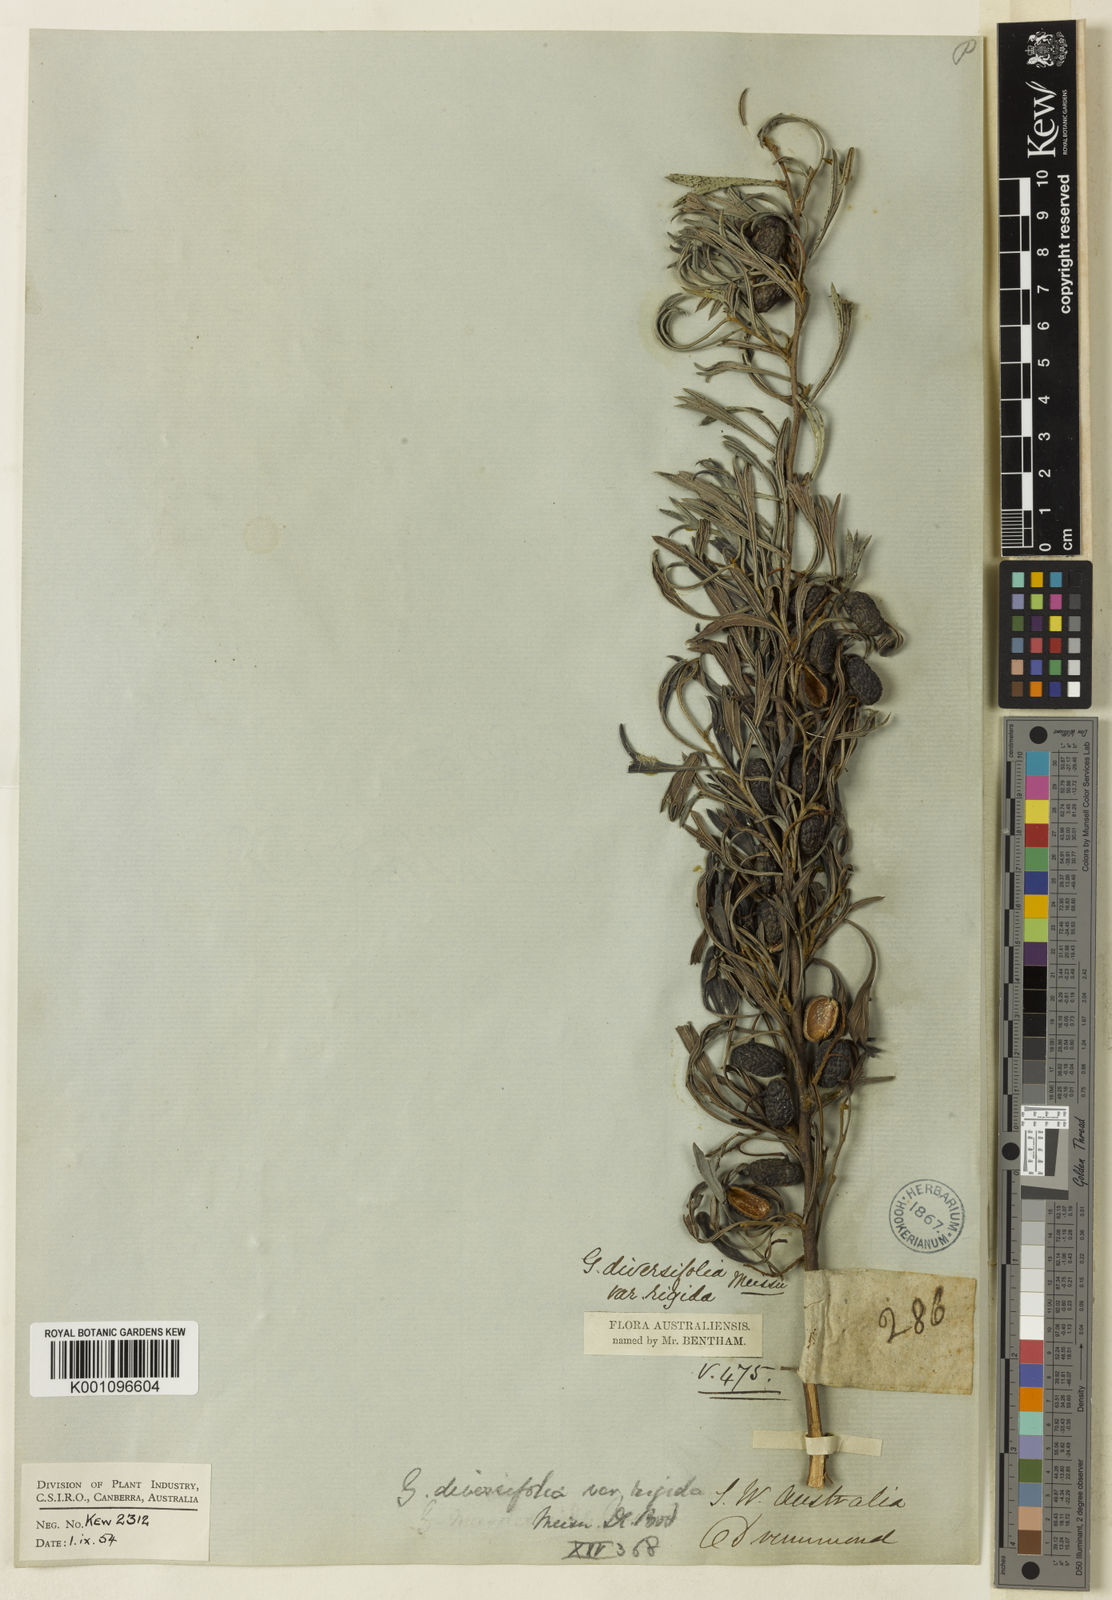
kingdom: Plantae
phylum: Tracheophyta
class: Magnoliopsida
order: Proteales
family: Proteaceae
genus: Grevillea
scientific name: Grevillea curviloba
